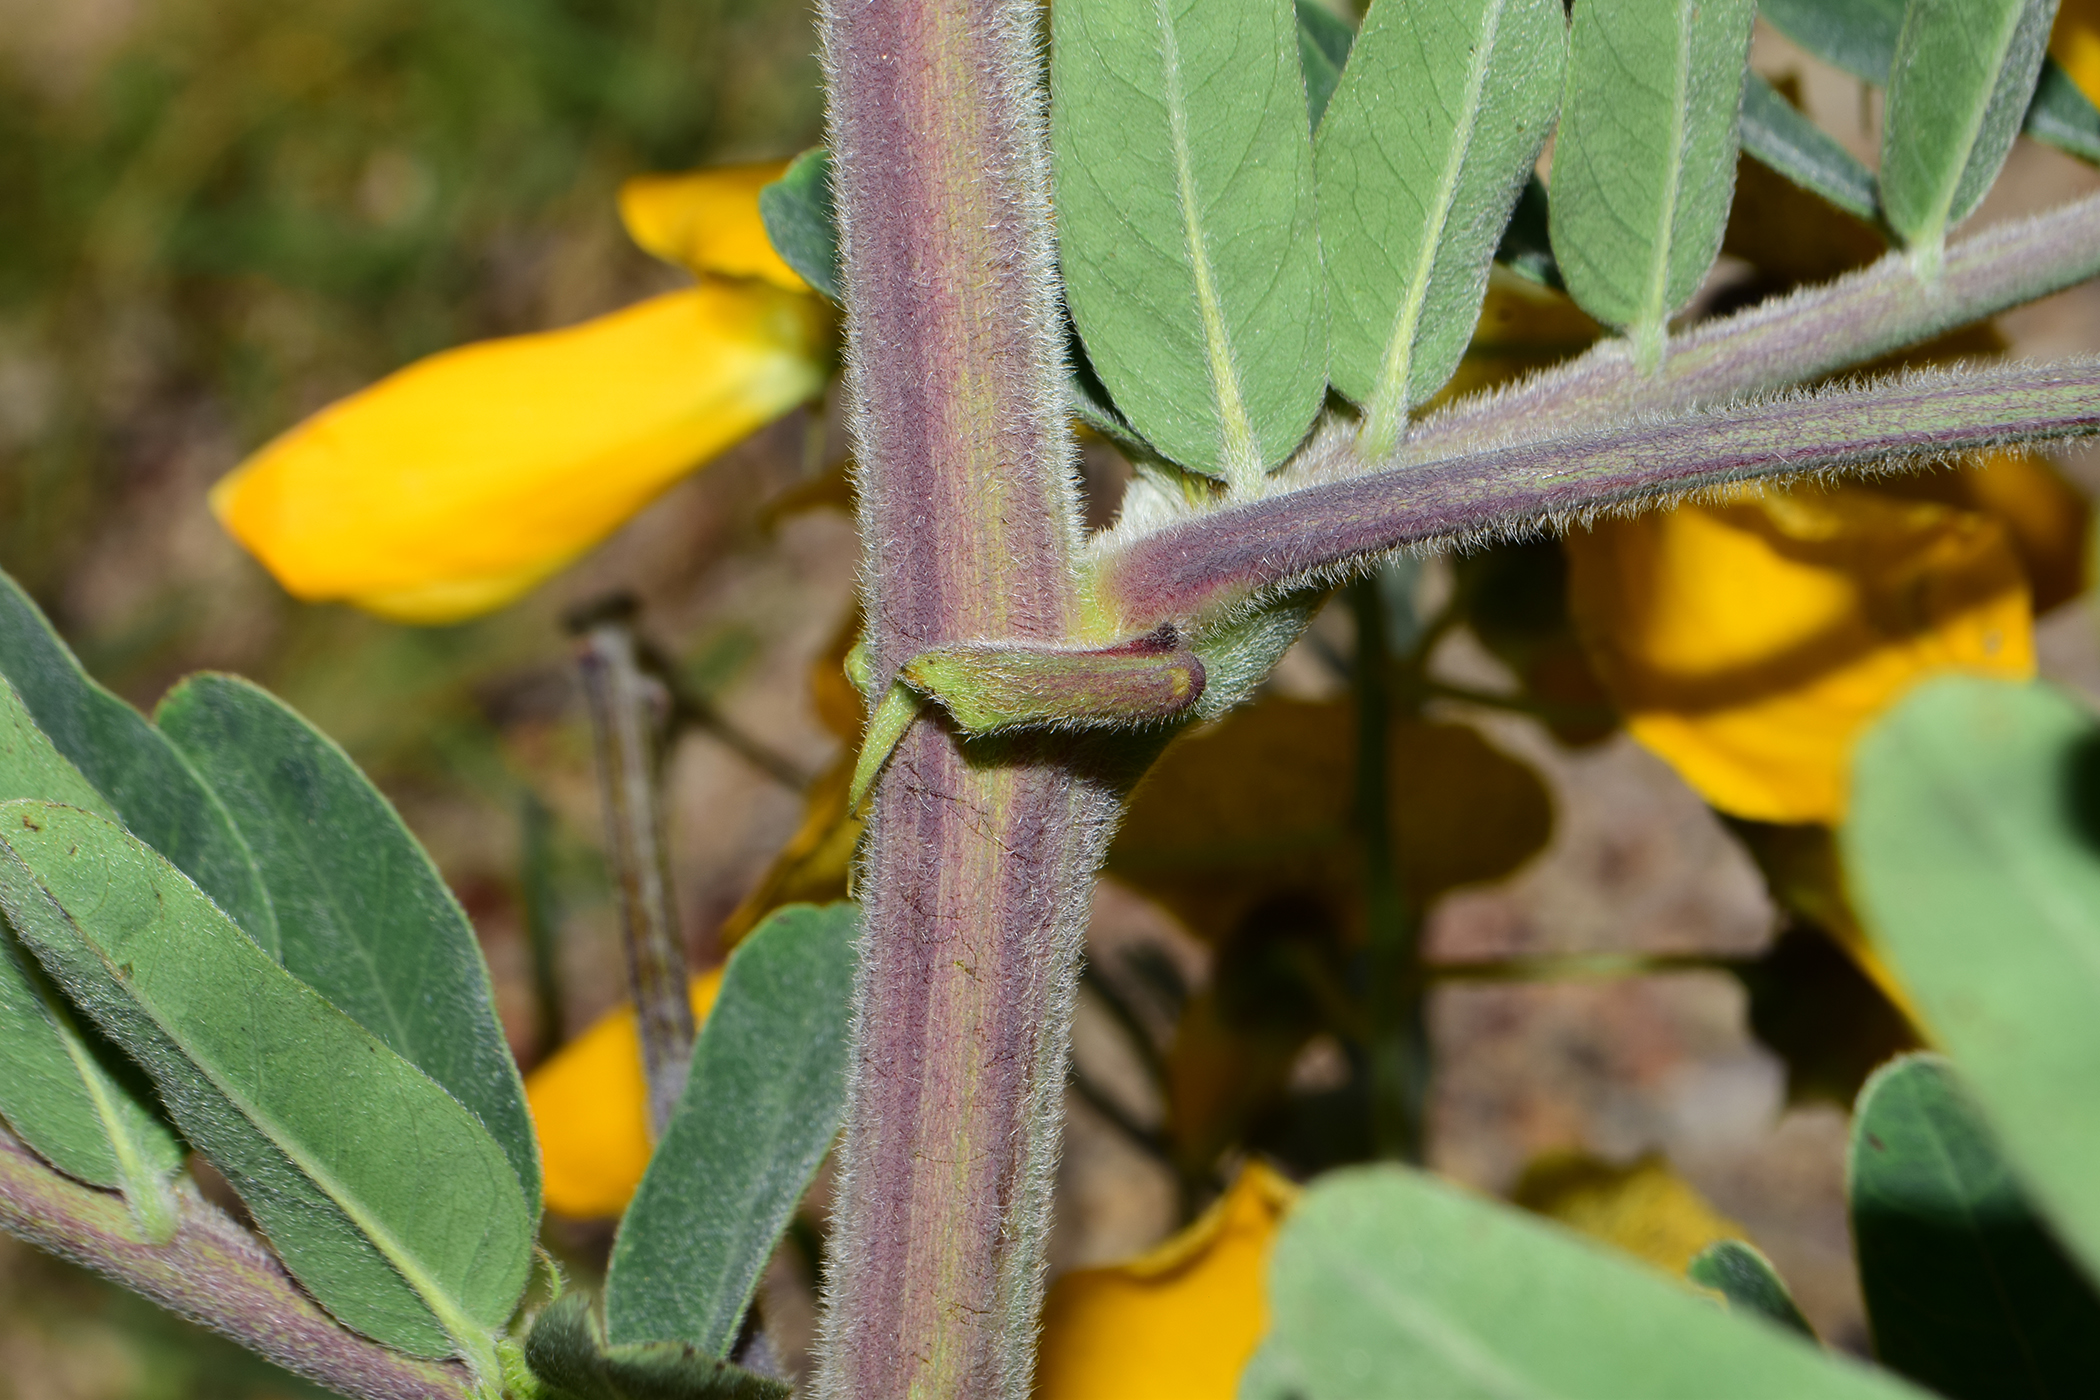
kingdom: Plantae
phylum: Tracheophyta
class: Magnoliopsida
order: Fabales
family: Fabaceae
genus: Sesbania
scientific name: Sesbania speciosa
